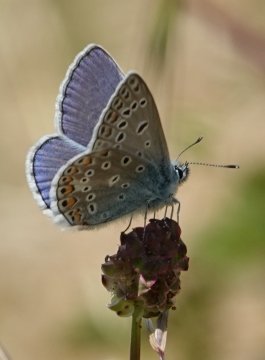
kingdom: Animalia
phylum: Arthropoda
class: Insecta
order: Lepidoptera
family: Lycaenidae
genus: Polyommatus
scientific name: Polyommatus icarus
